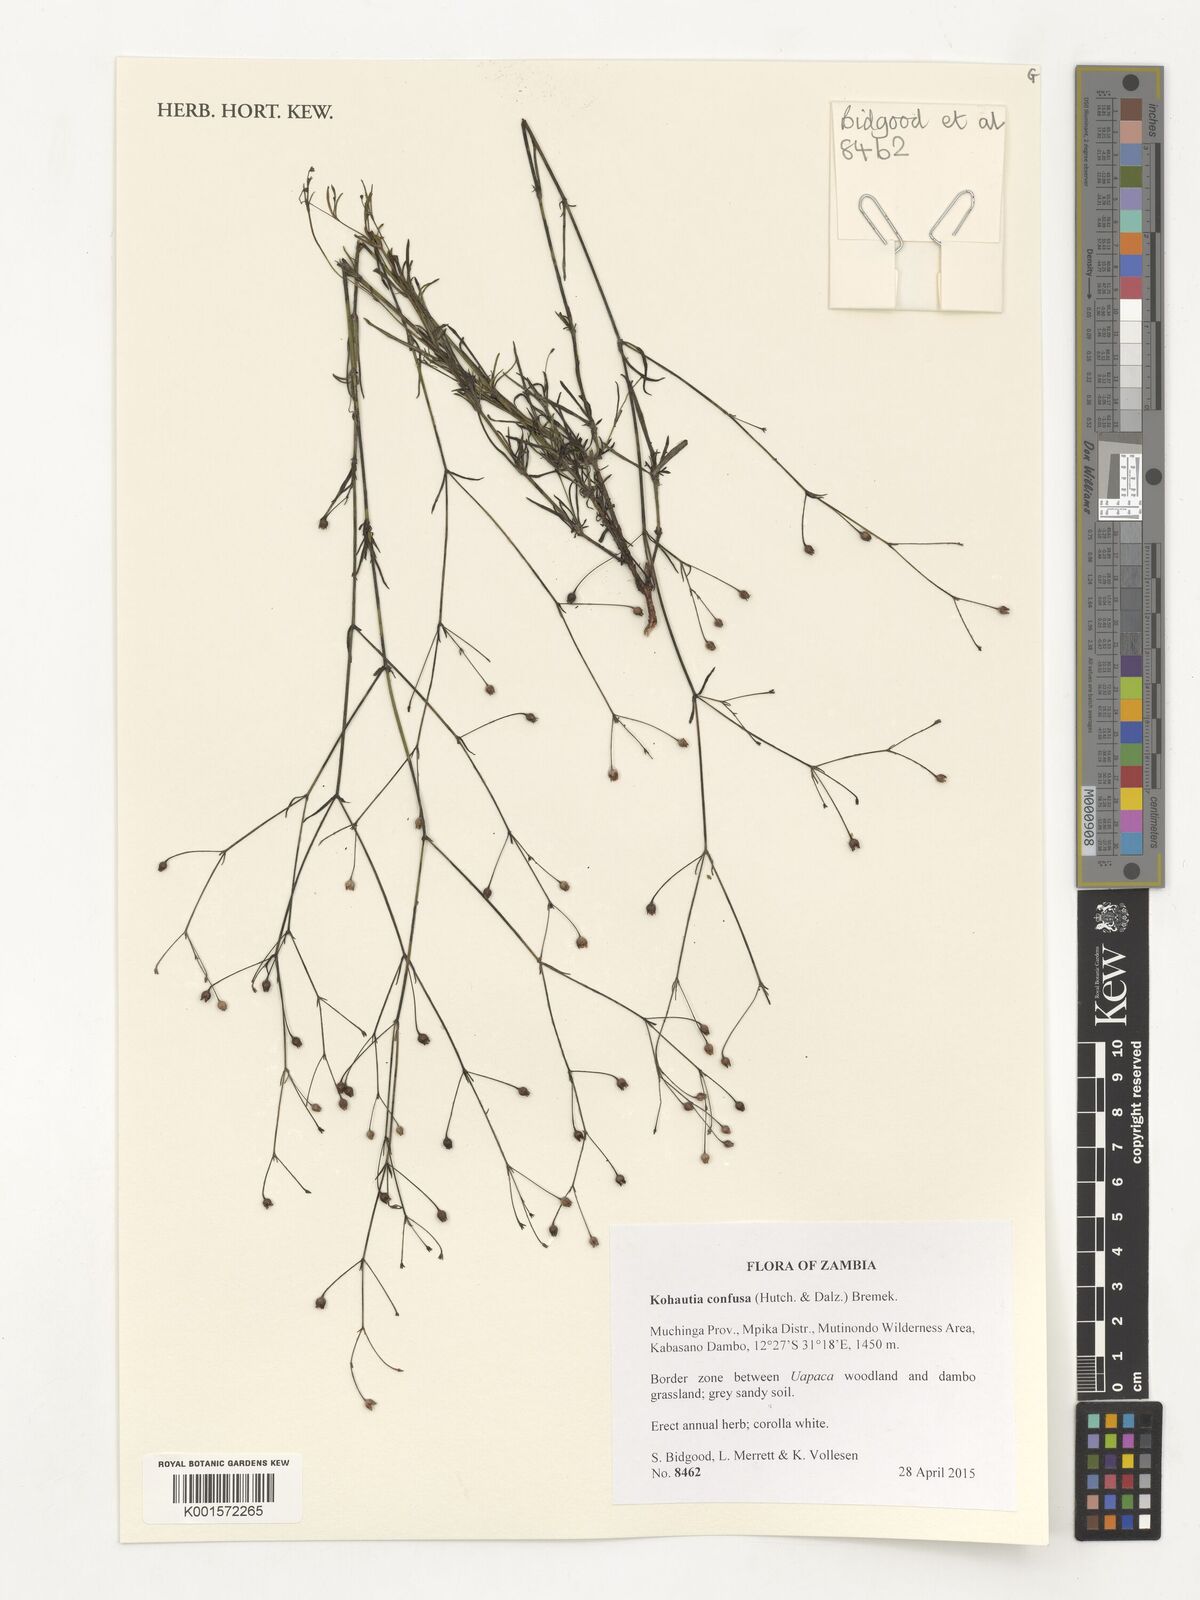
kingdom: Plantae
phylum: Tracheophyta
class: Magnoliopsida
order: Gentianales
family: Rubiaceae
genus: Kohautia
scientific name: Kohautia confusa
